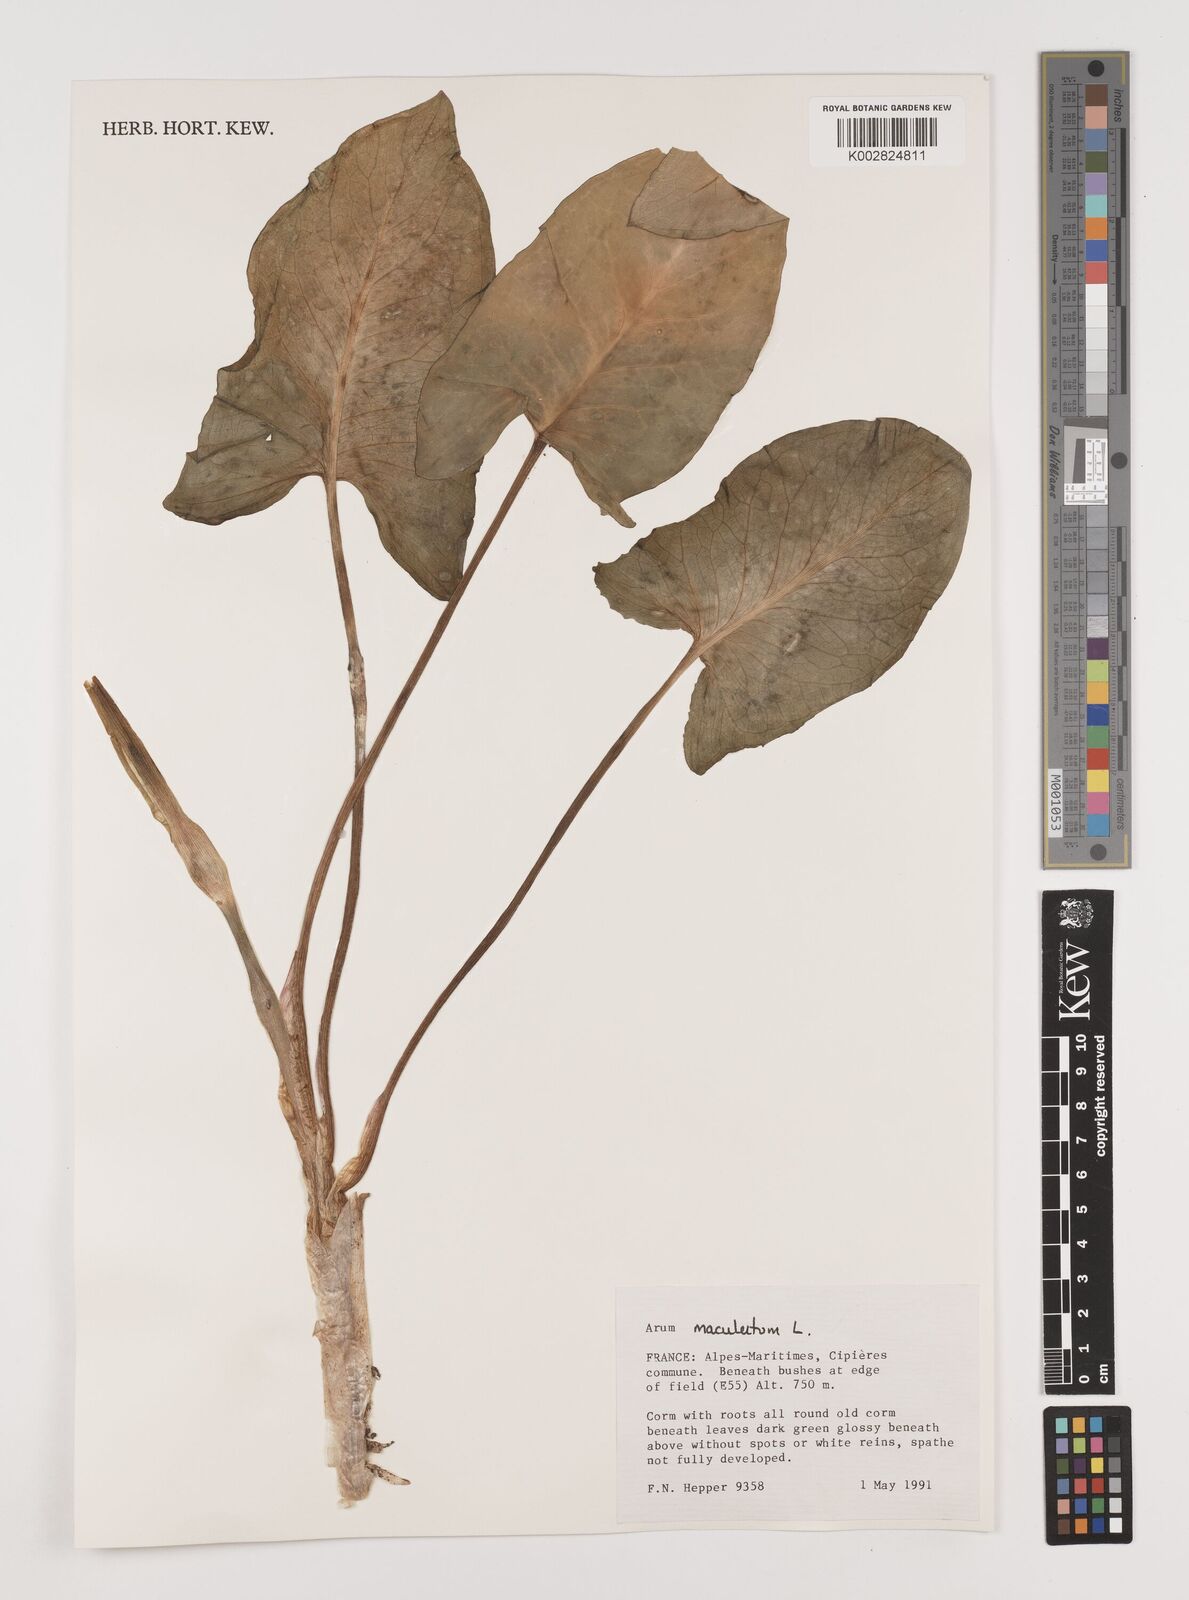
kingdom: Plantae
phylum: Tracheophyta
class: Liliopsida
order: Alismatales
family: Araceae
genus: Arum
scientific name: Arum maculatum
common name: Lords-and-ladies
